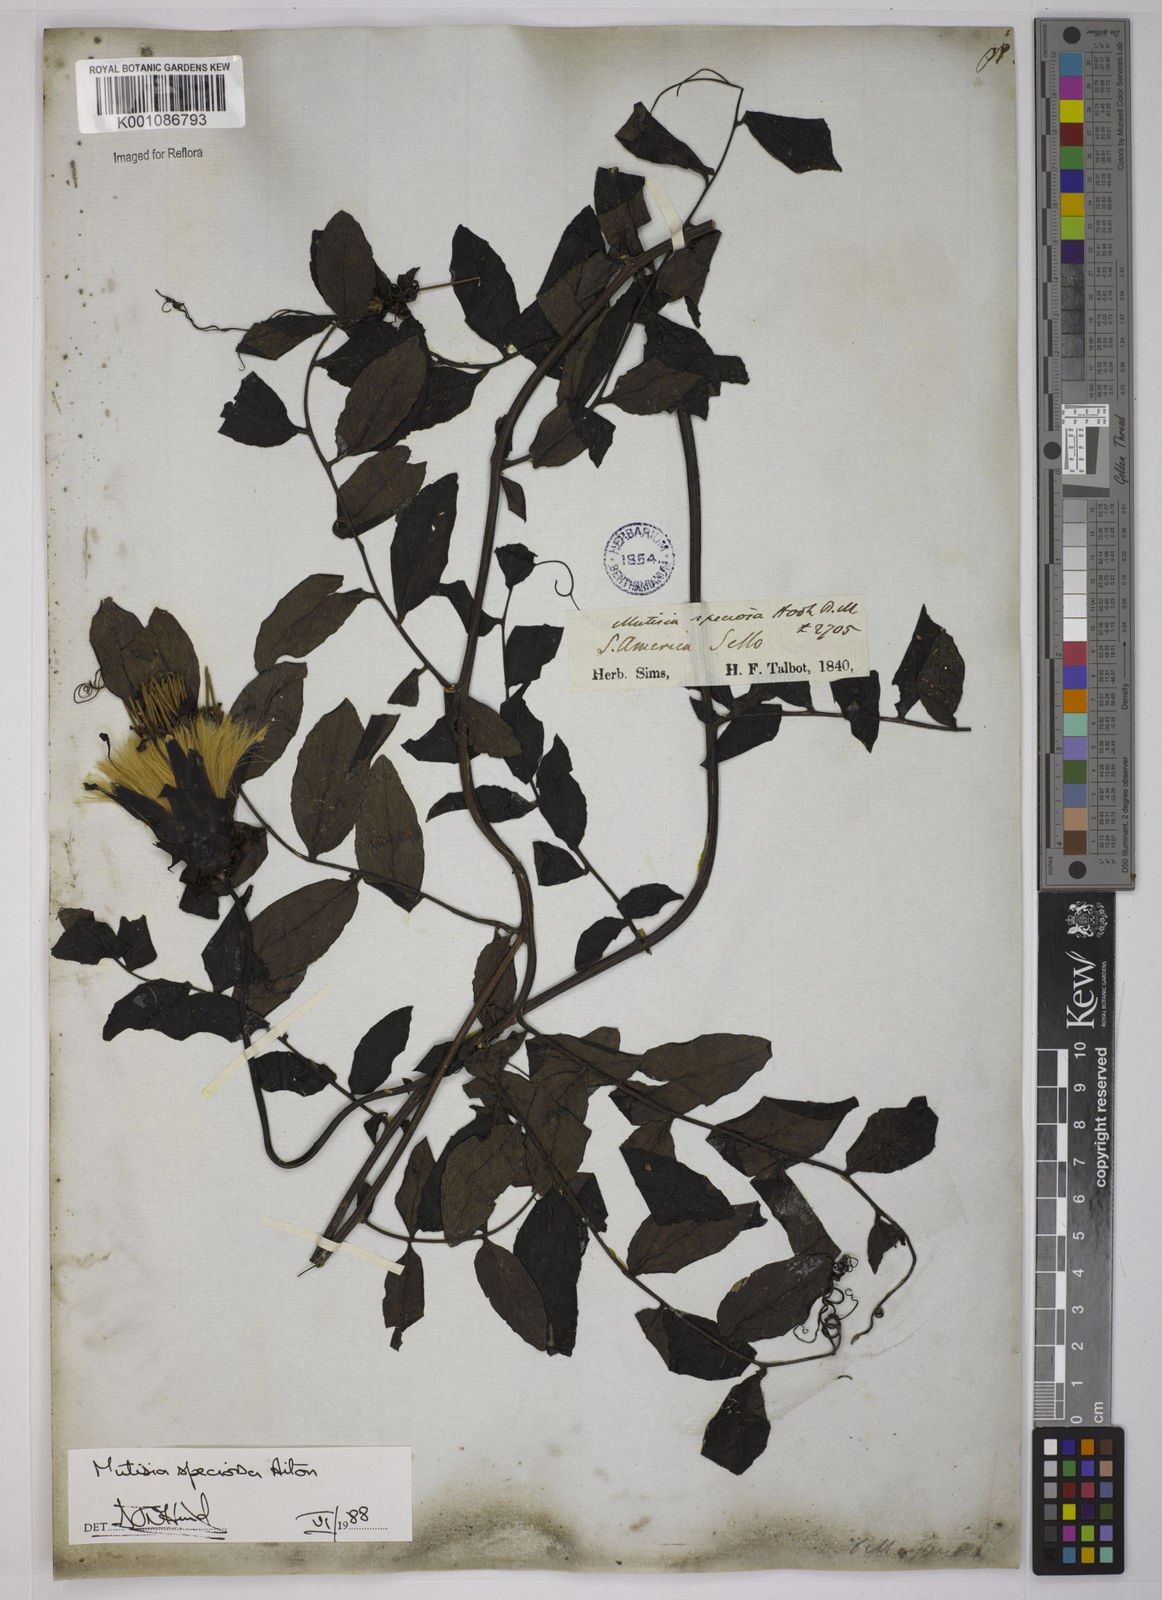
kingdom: Plantae
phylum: Tracheophyta
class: Magnoliopsida
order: Asterales
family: Asteraceae
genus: Mutisia
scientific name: Mutisia speciosa
